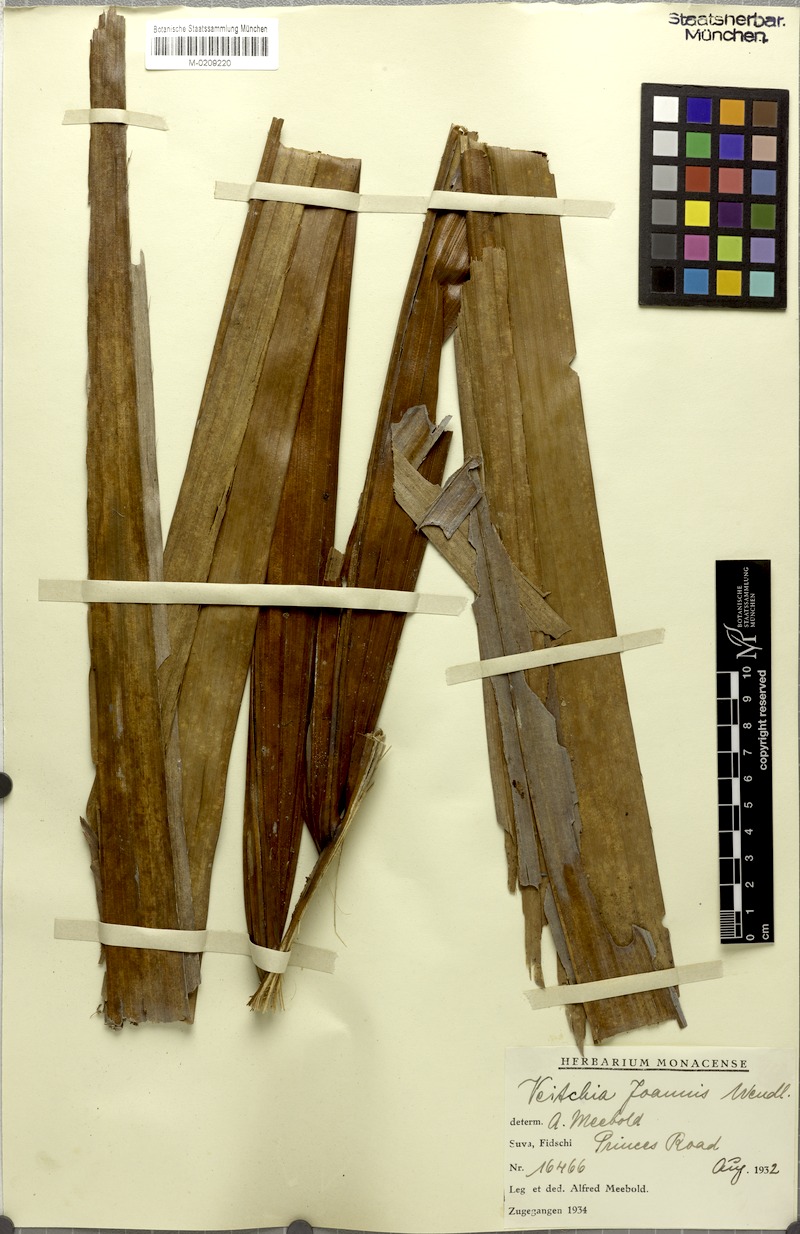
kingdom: Plantae
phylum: Tracheophyta
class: Liliopsida
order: Arecales
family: Arecaceae
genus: Veitchia
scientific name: Veitchia joannis
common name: Joannis palm
